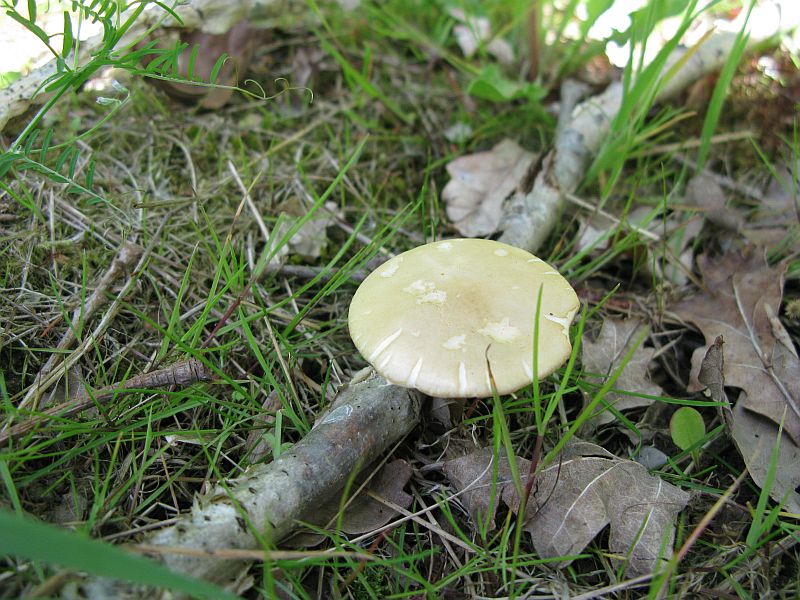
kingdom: Fungi
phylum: Basidiomycota
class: Agaricomycetes
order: Agaricales
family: Strophariaceae
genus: Agrocybe
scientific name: Agrocybe praecox
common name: tidlig agerhat
